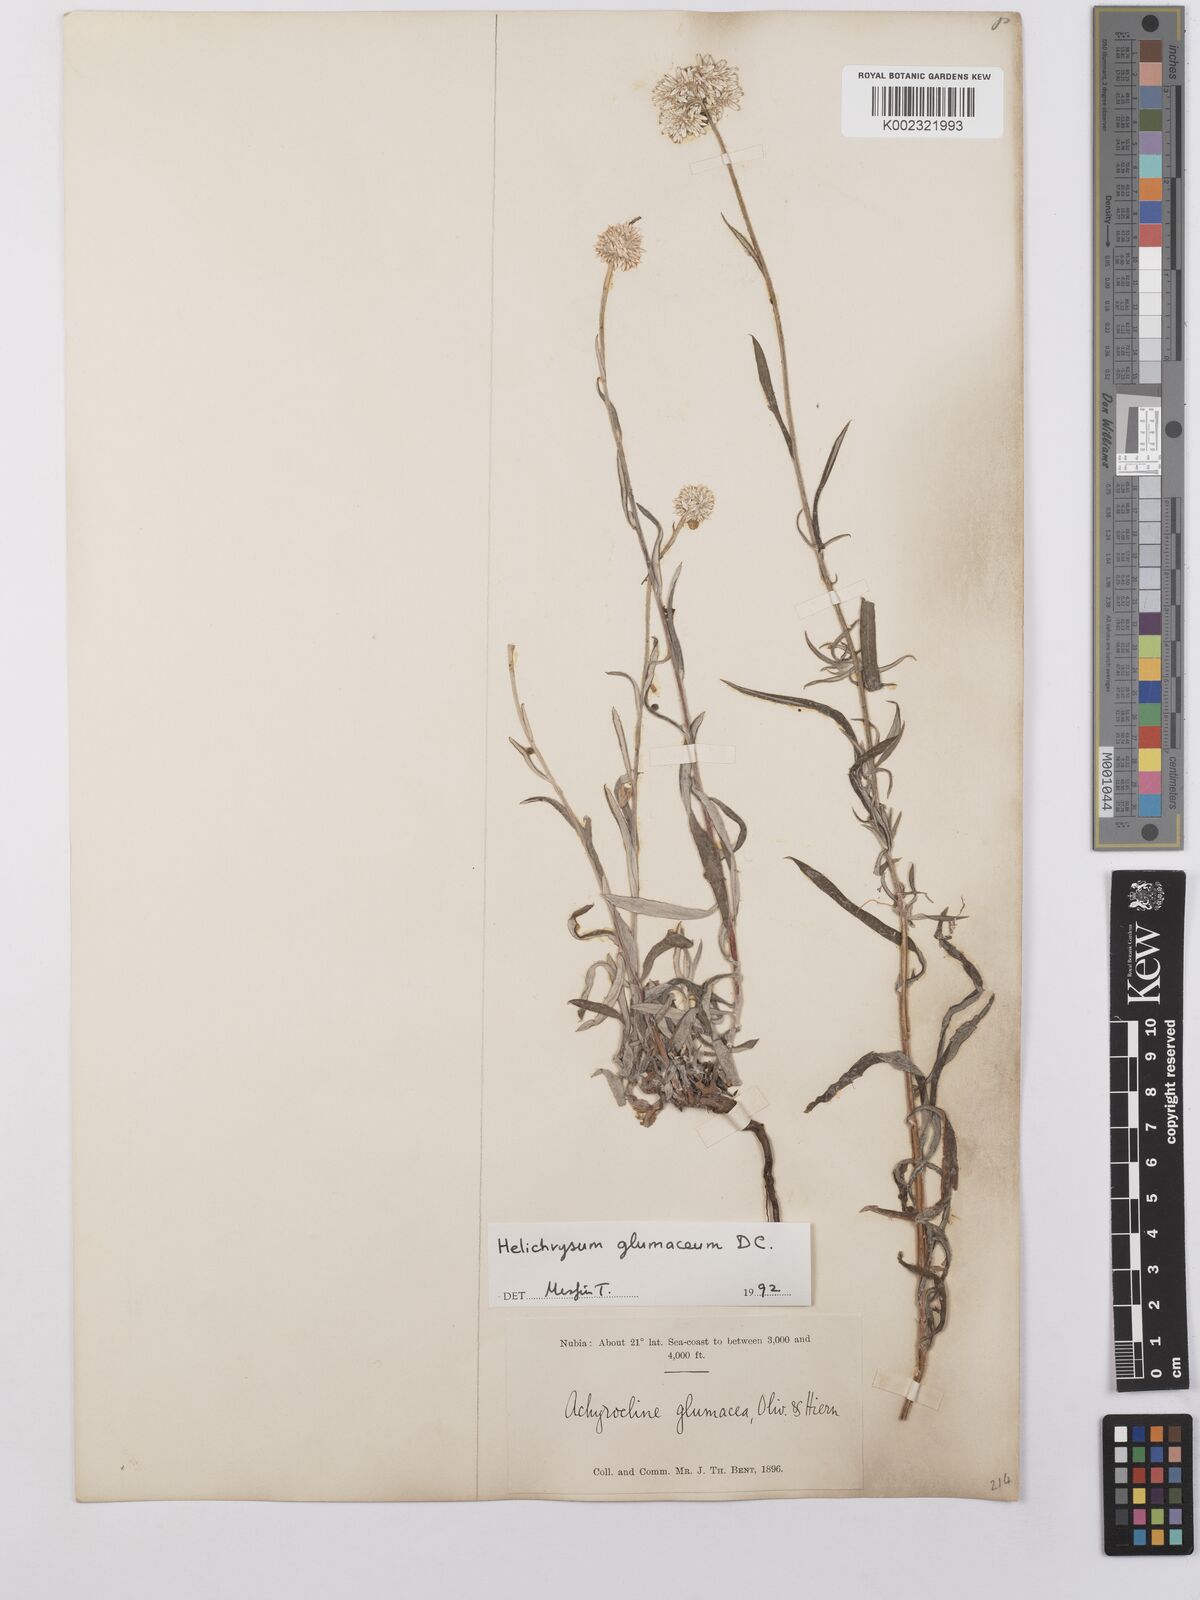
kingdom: Plantae
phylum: Tracheophyta
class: Magnoliopsida
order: Asterales
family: Asteraceae
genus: Helichrysum
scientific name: Helichrysum glumaceum
